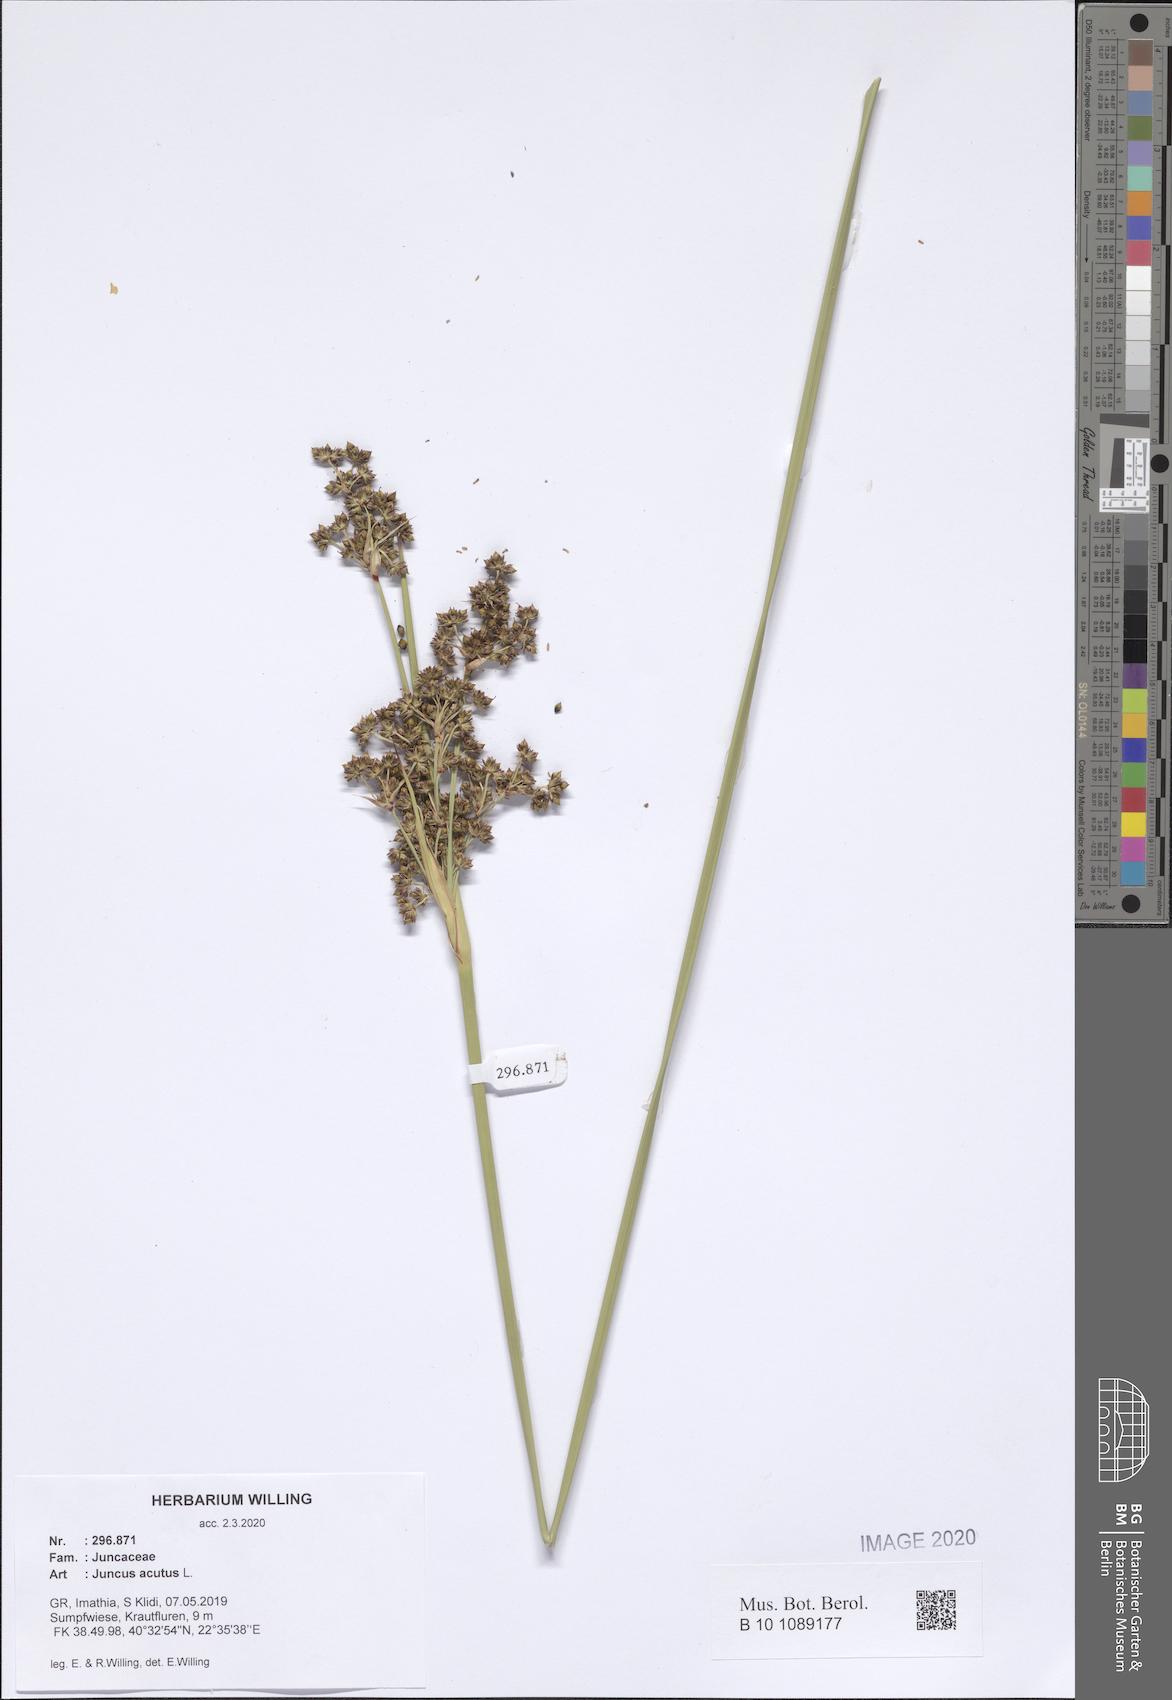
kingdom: Plantae
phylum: Tracheophyta
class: Liliopsida
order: Poales
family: Juncaceae
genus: Juncus
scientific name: Juncus acutus
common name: Sharp rush
